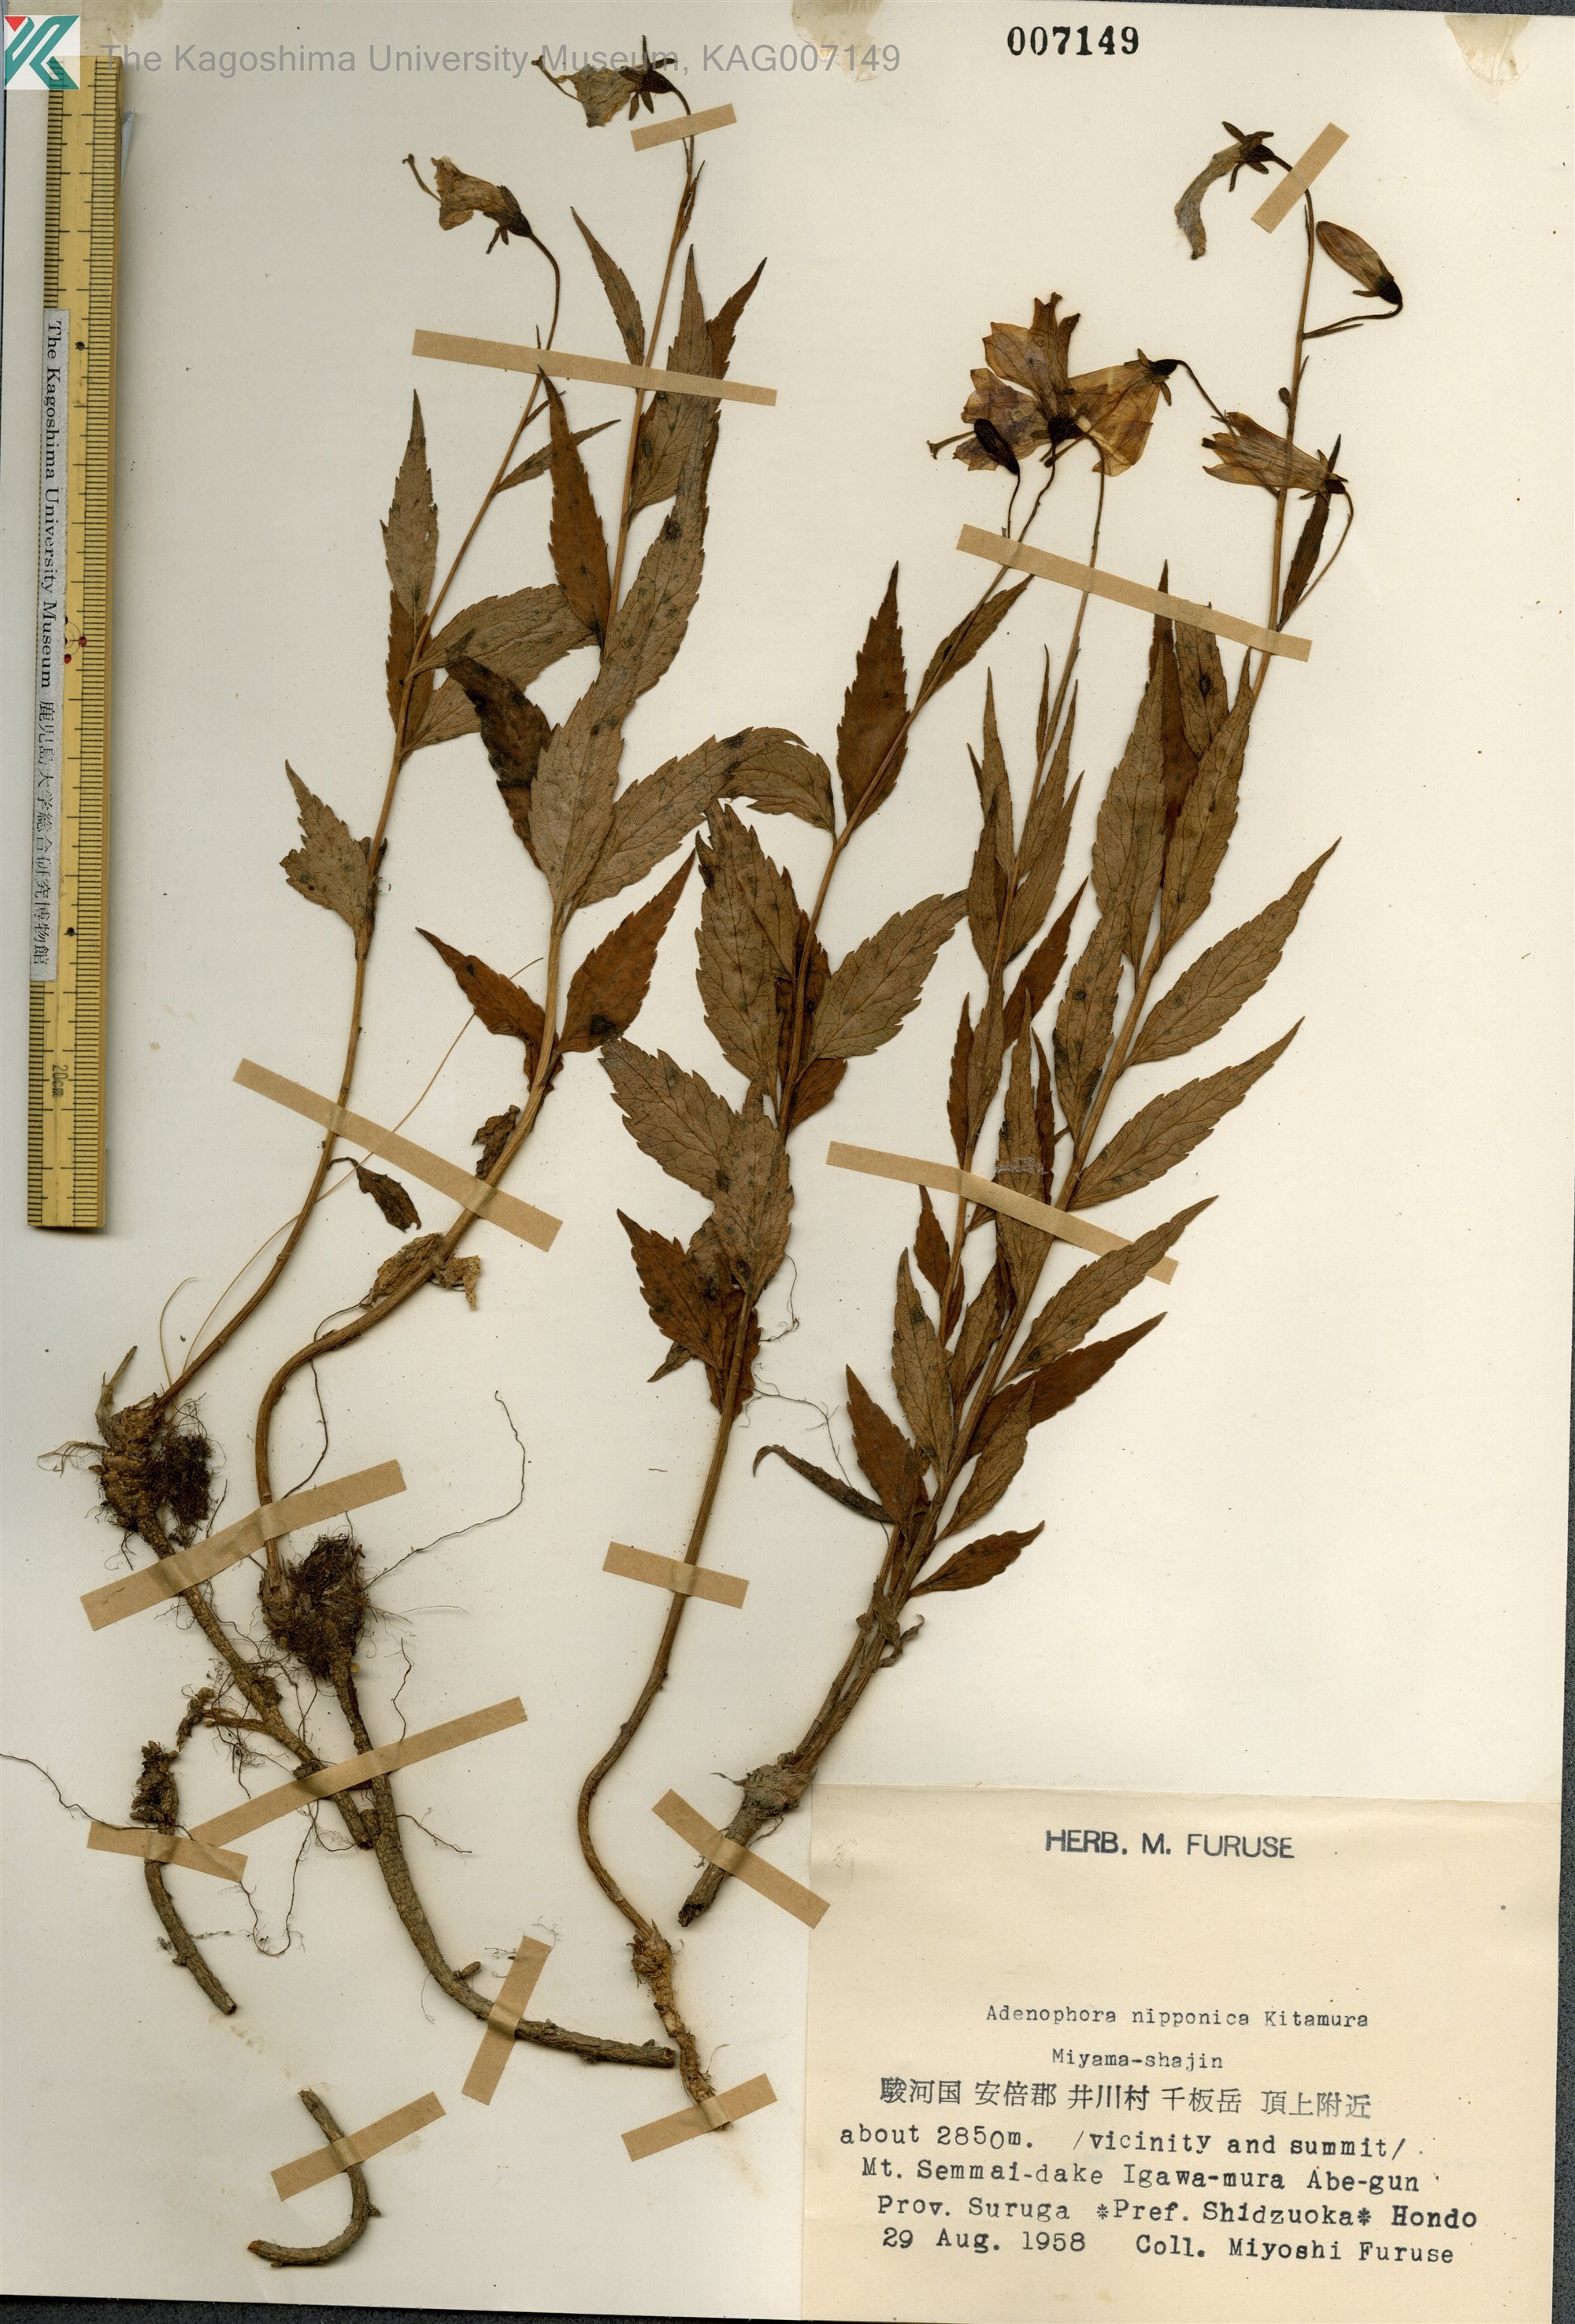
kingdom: Plantae
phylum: Tracheophyta
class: Magnoliopsida
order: Asterales
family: Campanulaceae
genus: Adenophora
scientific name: Adenophora nikoensis
